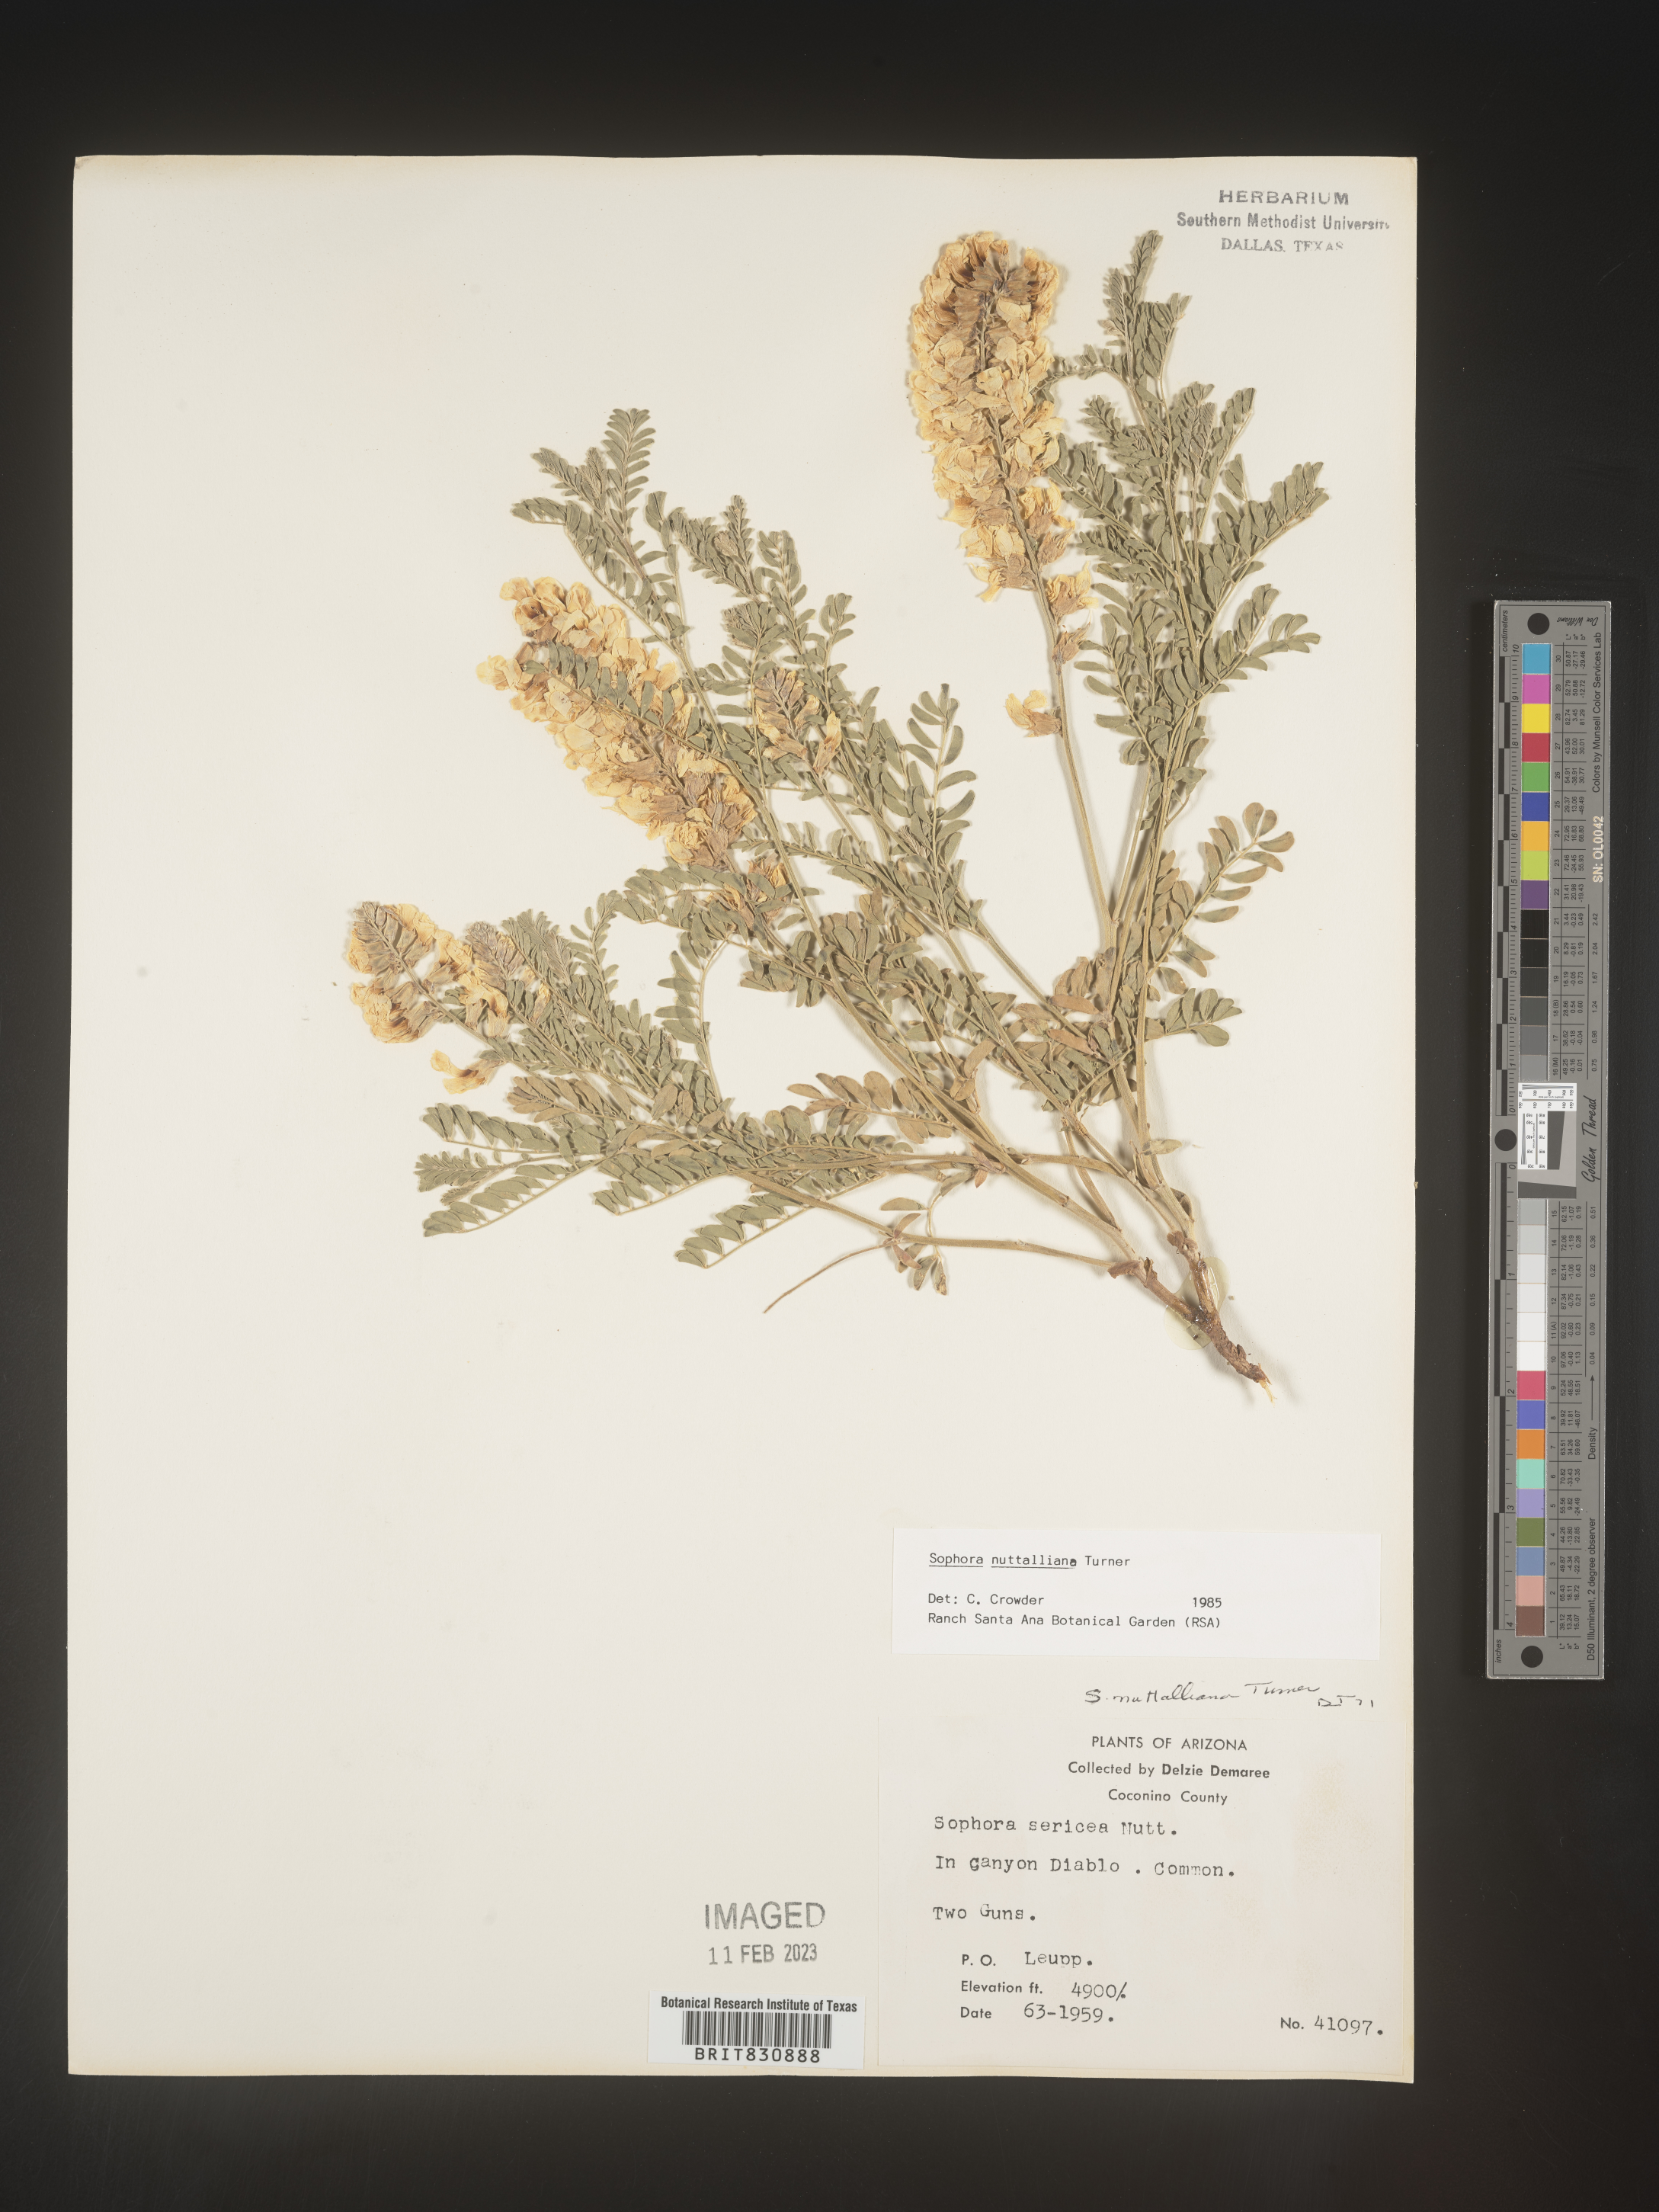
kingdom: Plantae
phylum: Tracheophyta
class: Magnoliopsida
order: Fabales
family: Fabaceae
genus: Sophora
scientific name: Sophora nuttalliana
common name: Silky sophora
